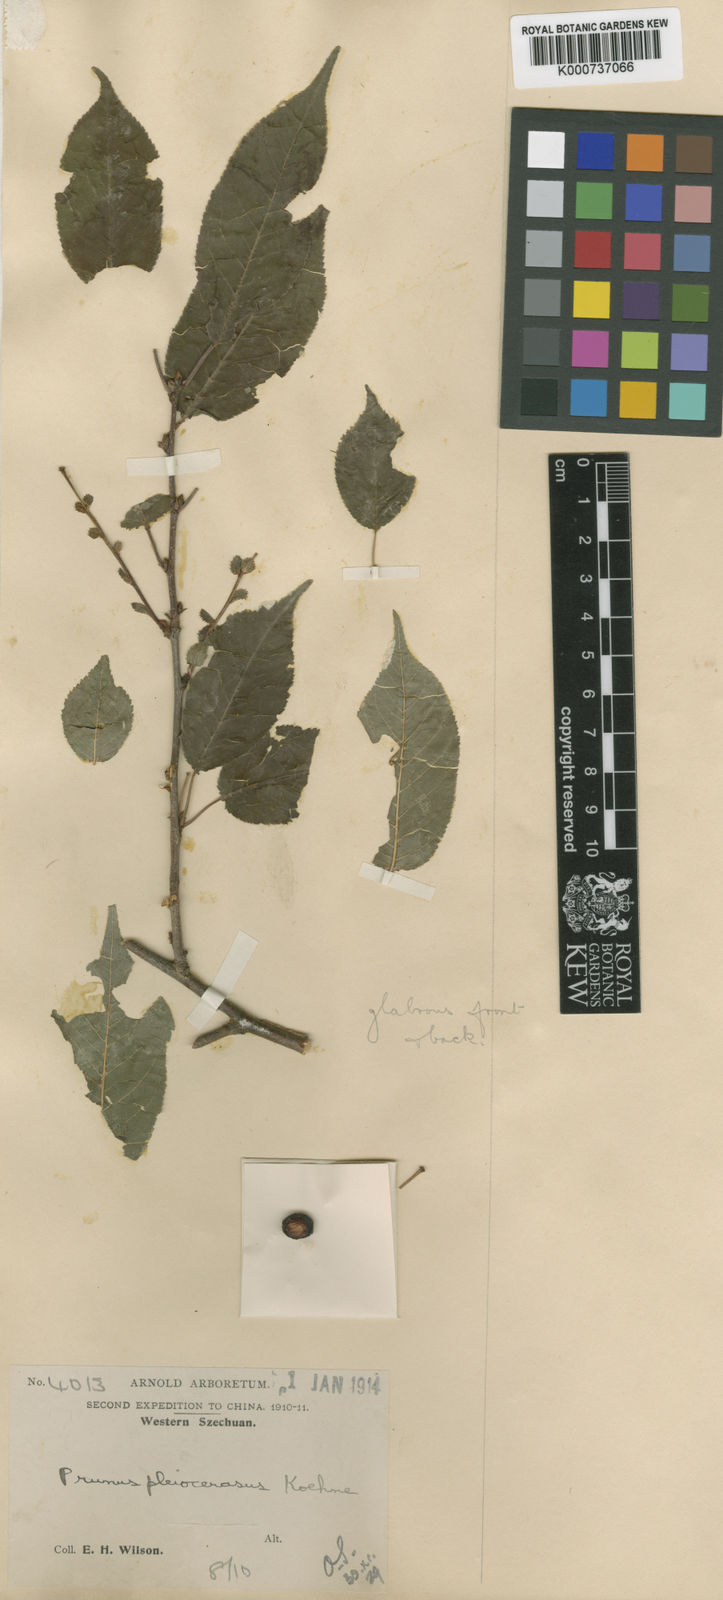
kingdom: Plantae
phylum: Tracheophyta
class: Magnoliopsida
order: Rosales
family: Rosaceae
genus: Prunus
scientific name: Prunus pleiocerasus
